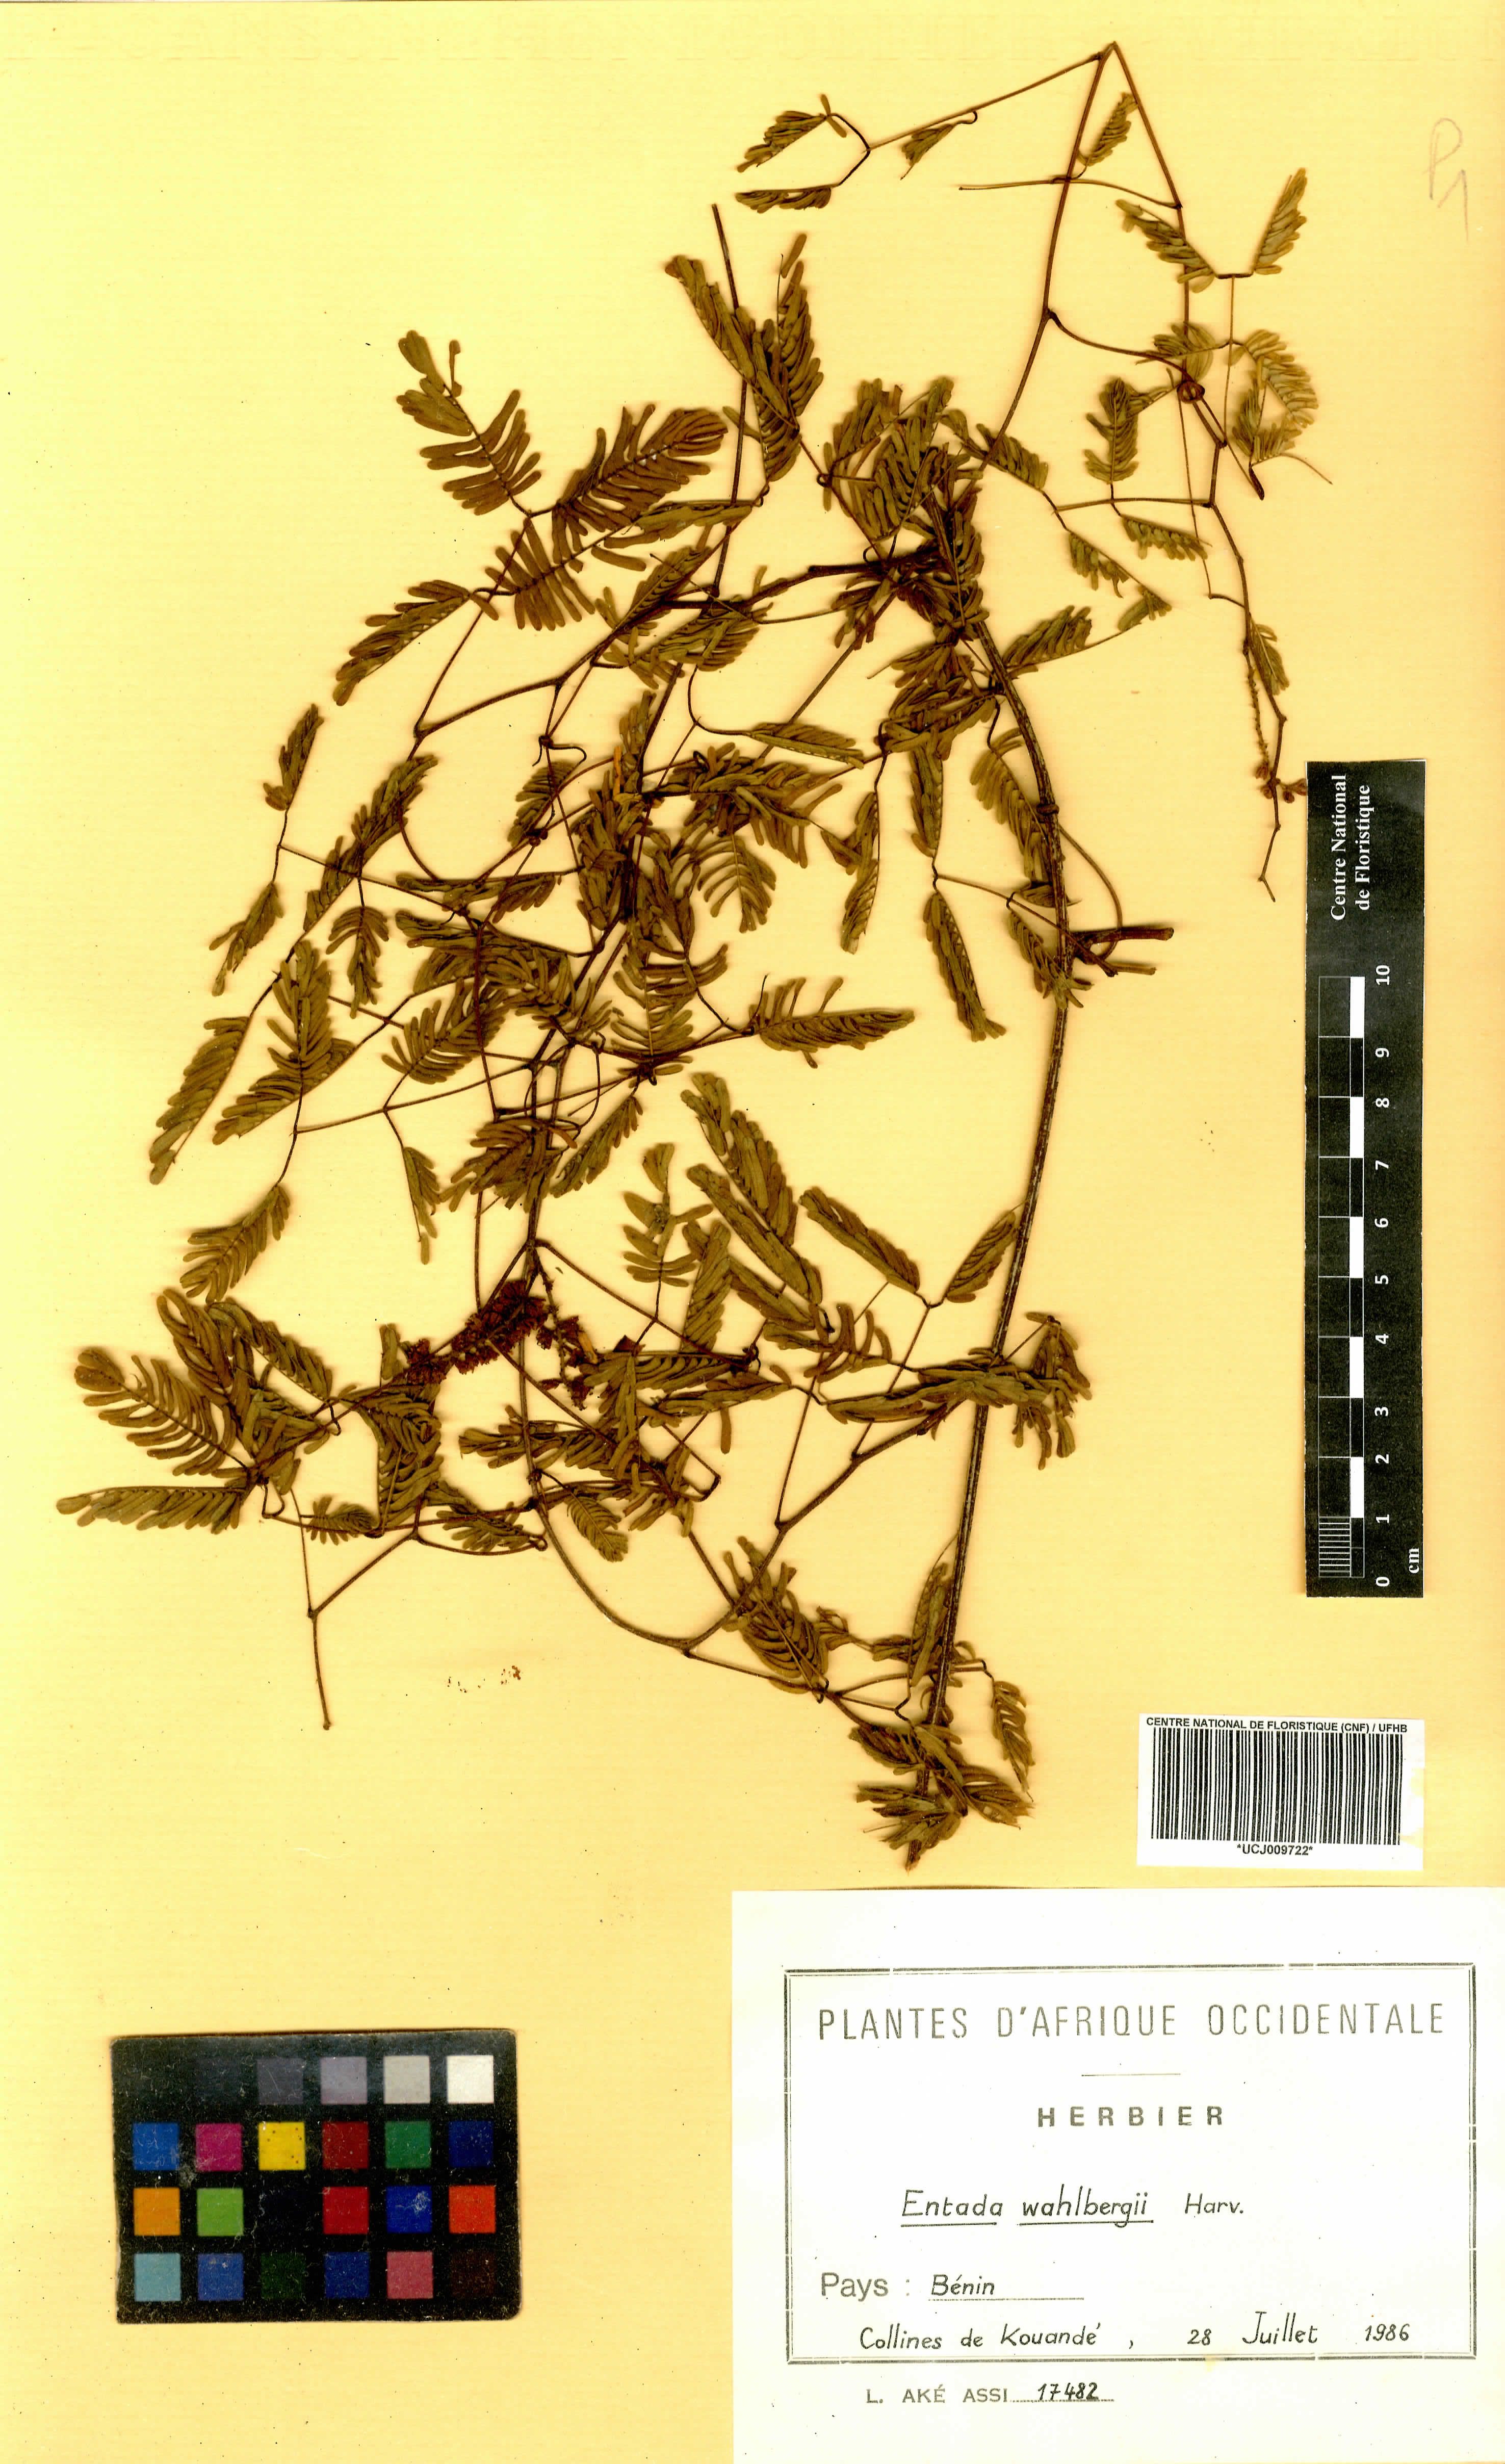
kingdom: Plantae
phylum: Tracheophyta
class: Magnoliopsida
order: Fabales
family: Fabaceae
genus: Entada
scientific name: Entada wahlbergii
